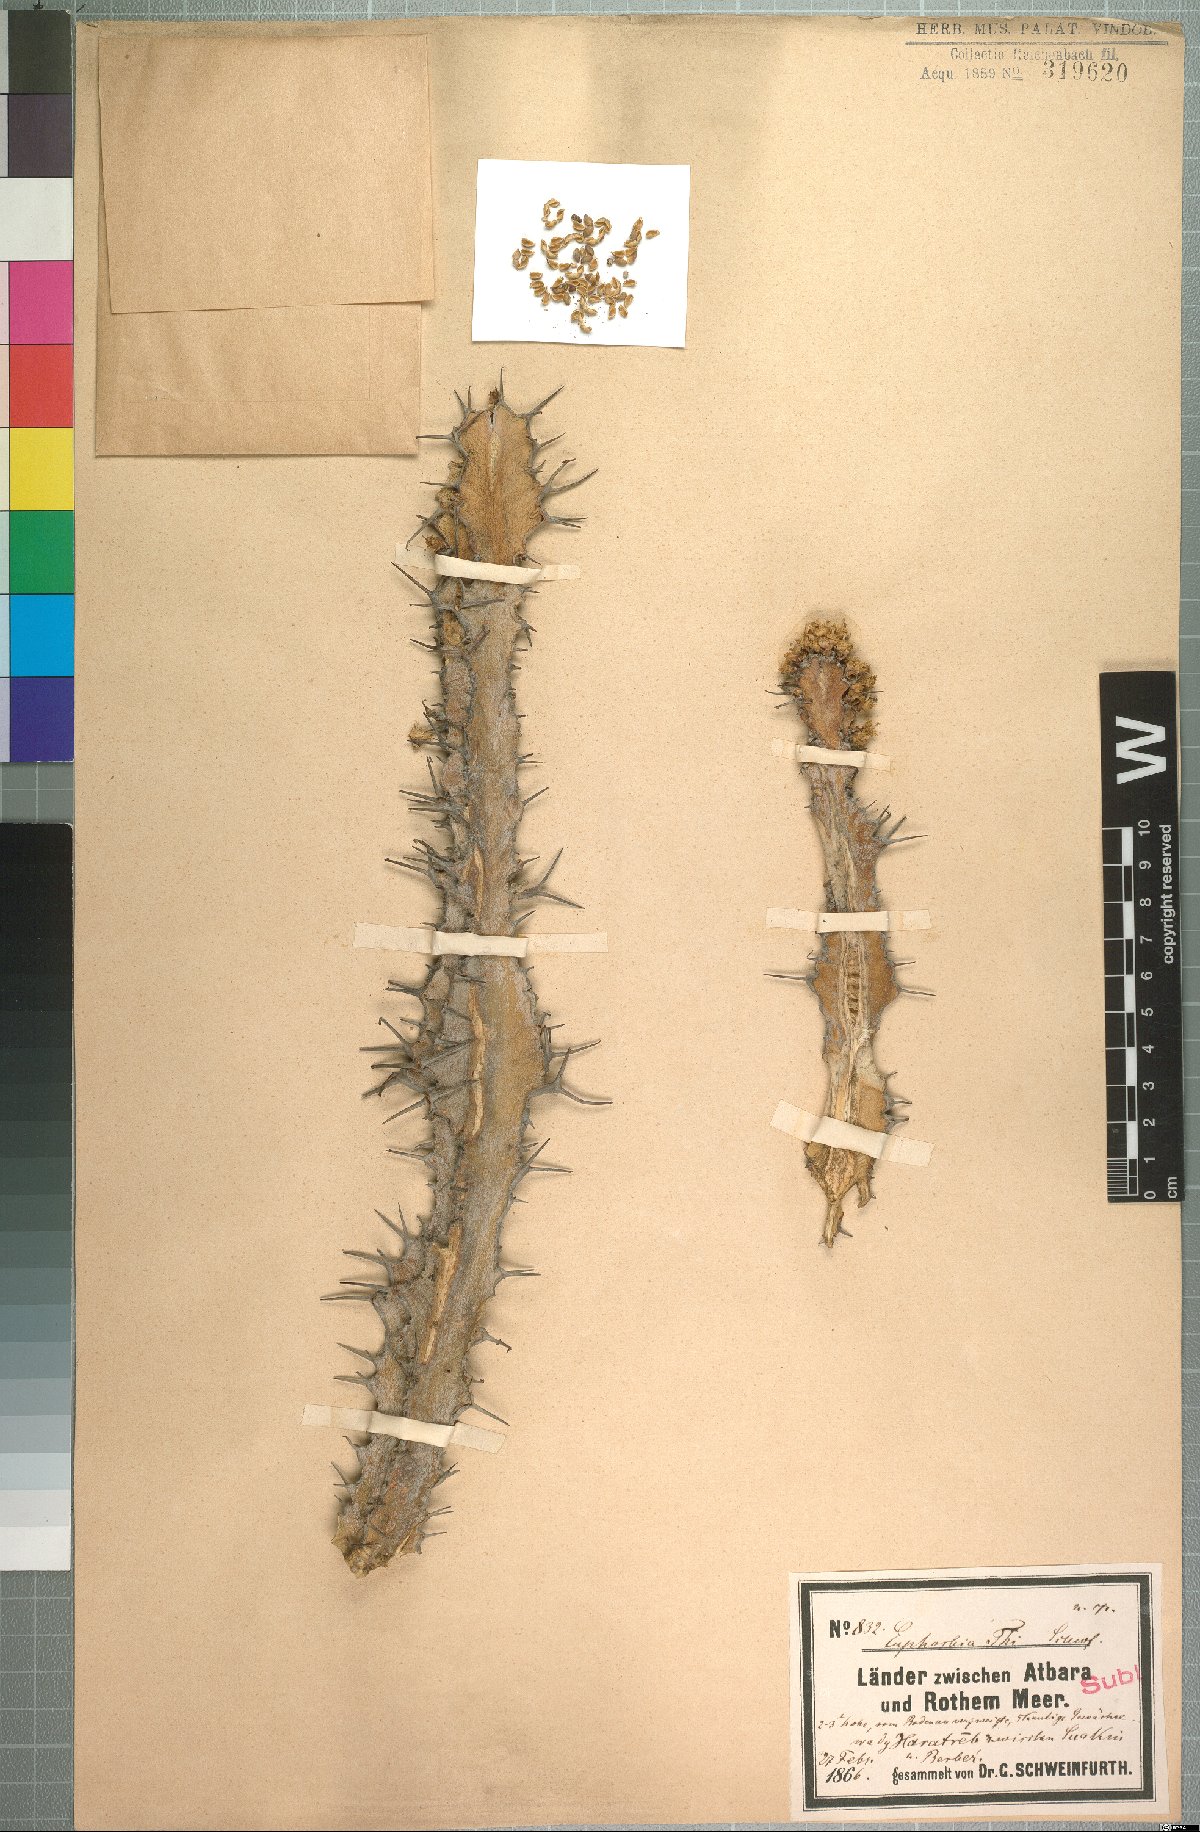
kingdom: Plantae
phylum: Tracheophyta
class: Magnoliopsida
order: Malpighiales
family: Euphorbiaceae
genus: Euphorbia
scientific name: Euphorbia polyacantha
